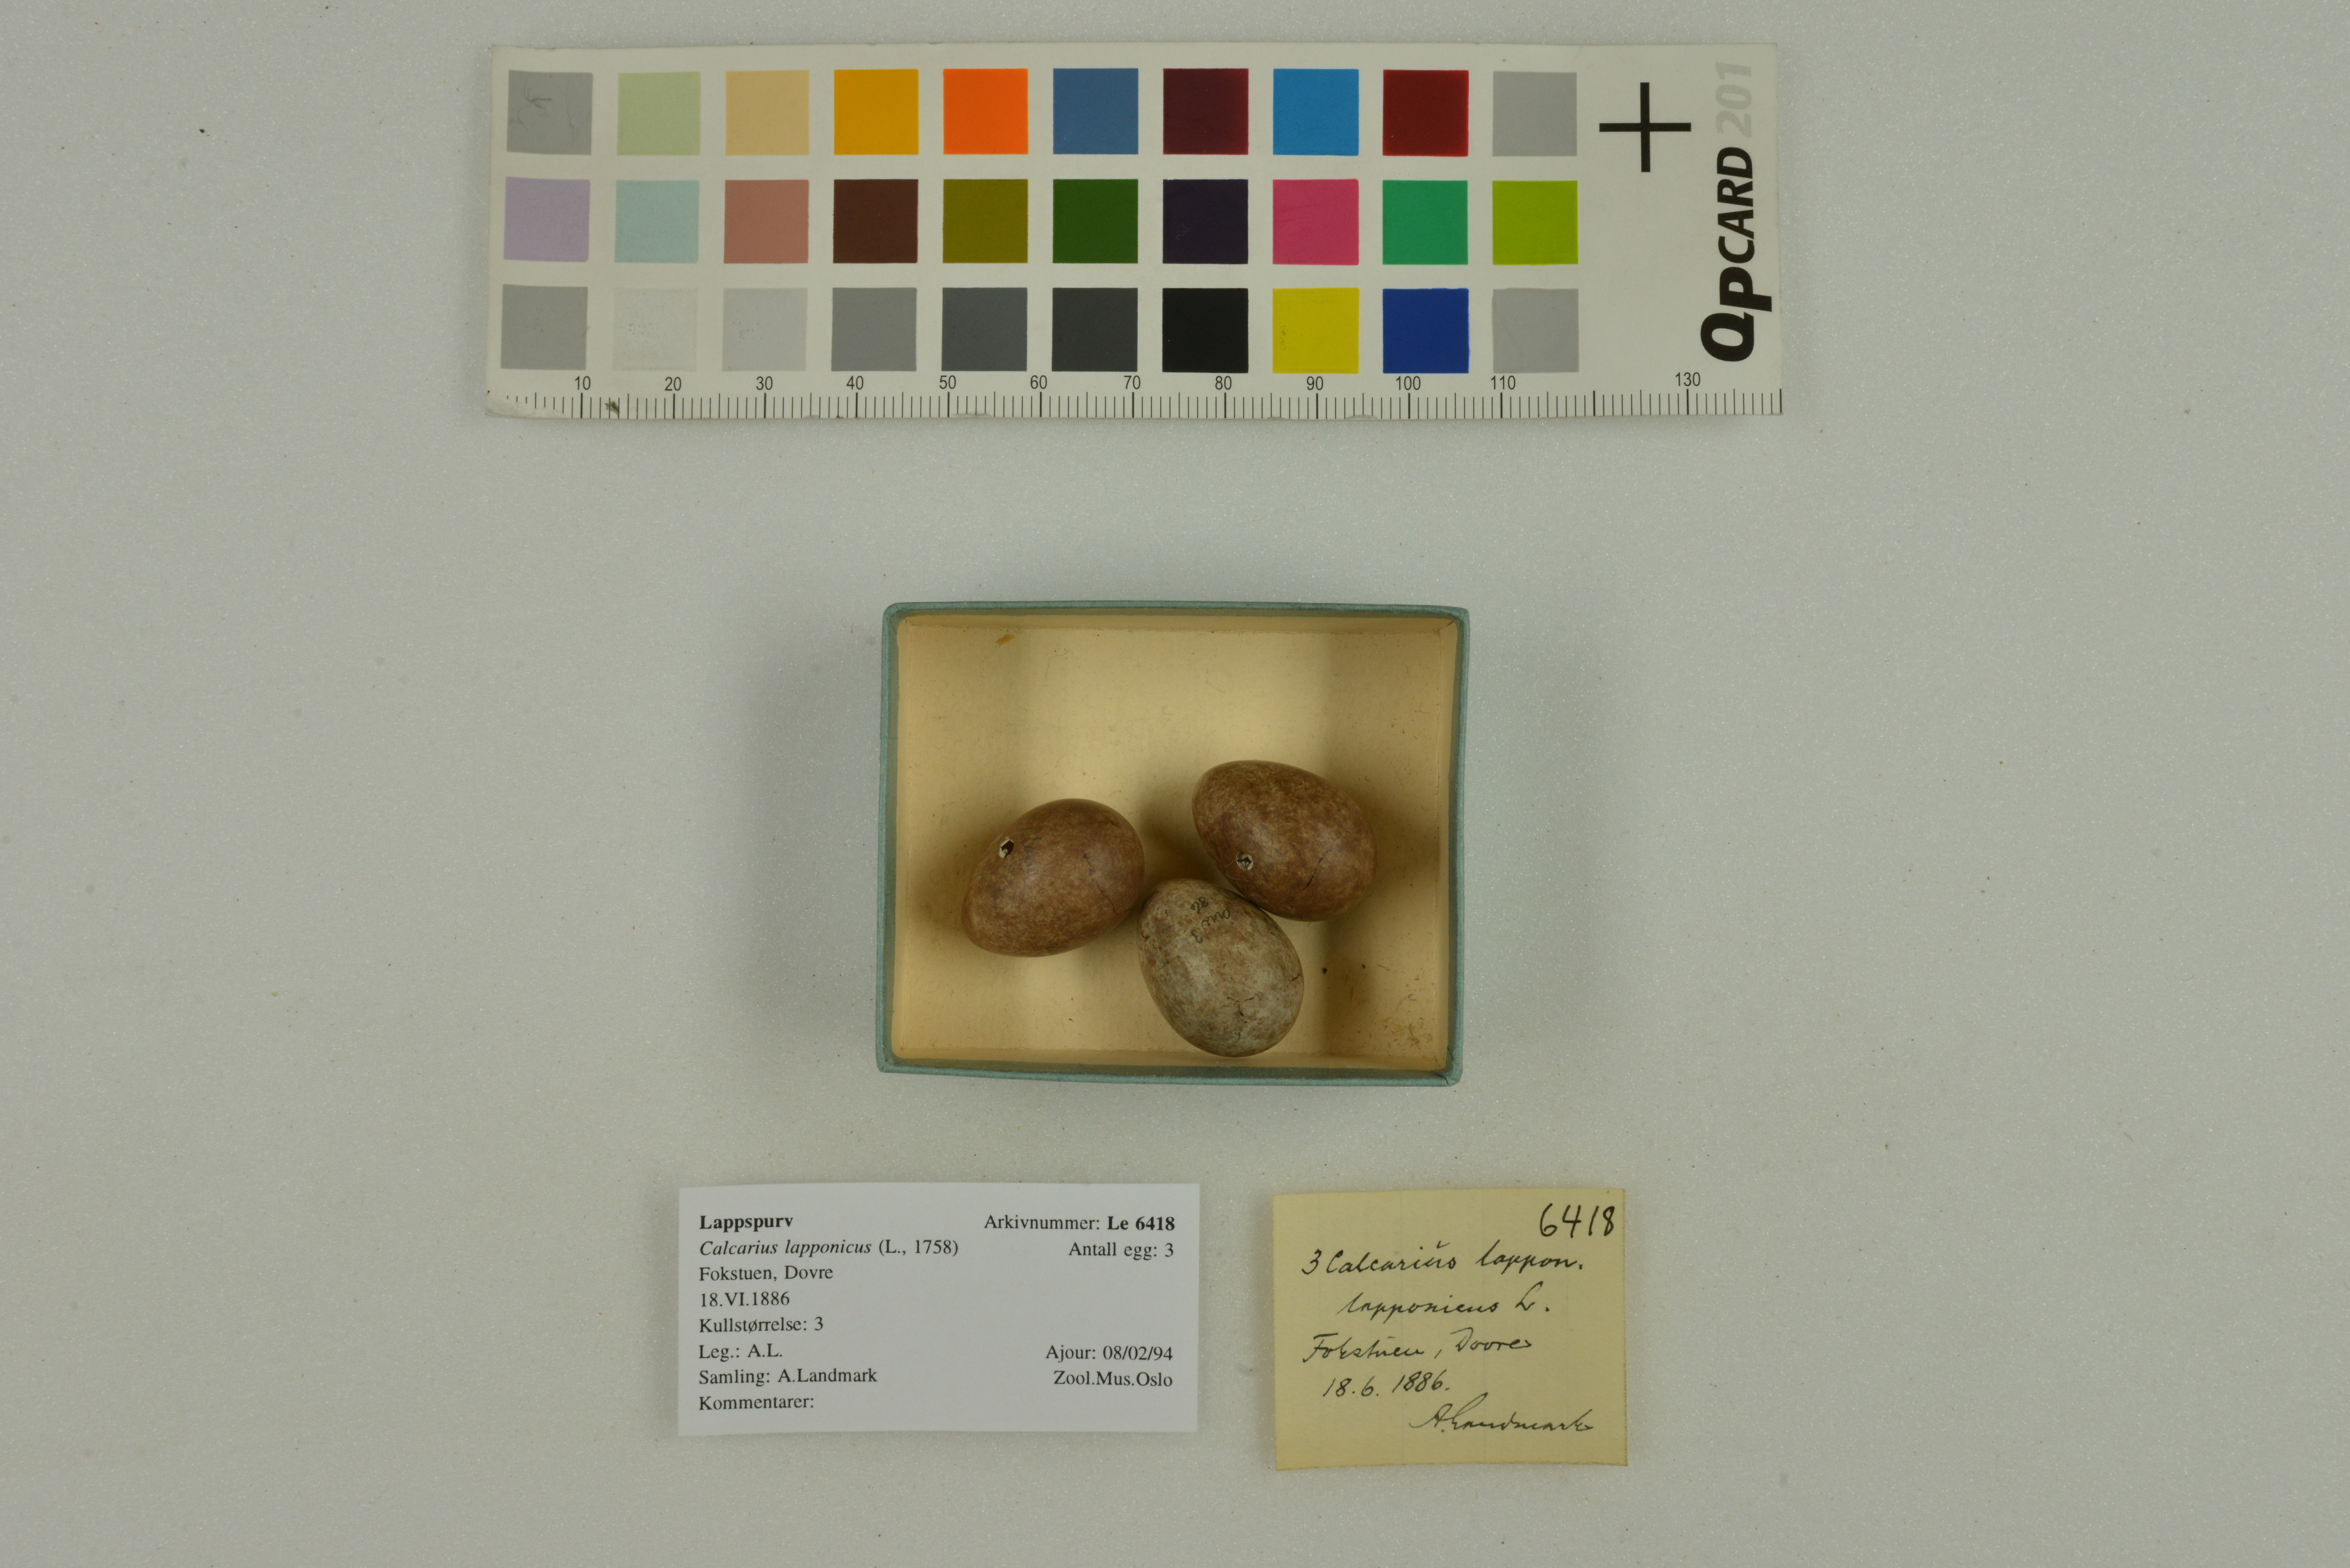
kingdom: Animalia
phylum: Chordata
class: Aves
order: Passeriformes
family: Calcariidae
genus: Calcarius
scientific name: Calcarius lapponicus
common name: Lapland longspur
